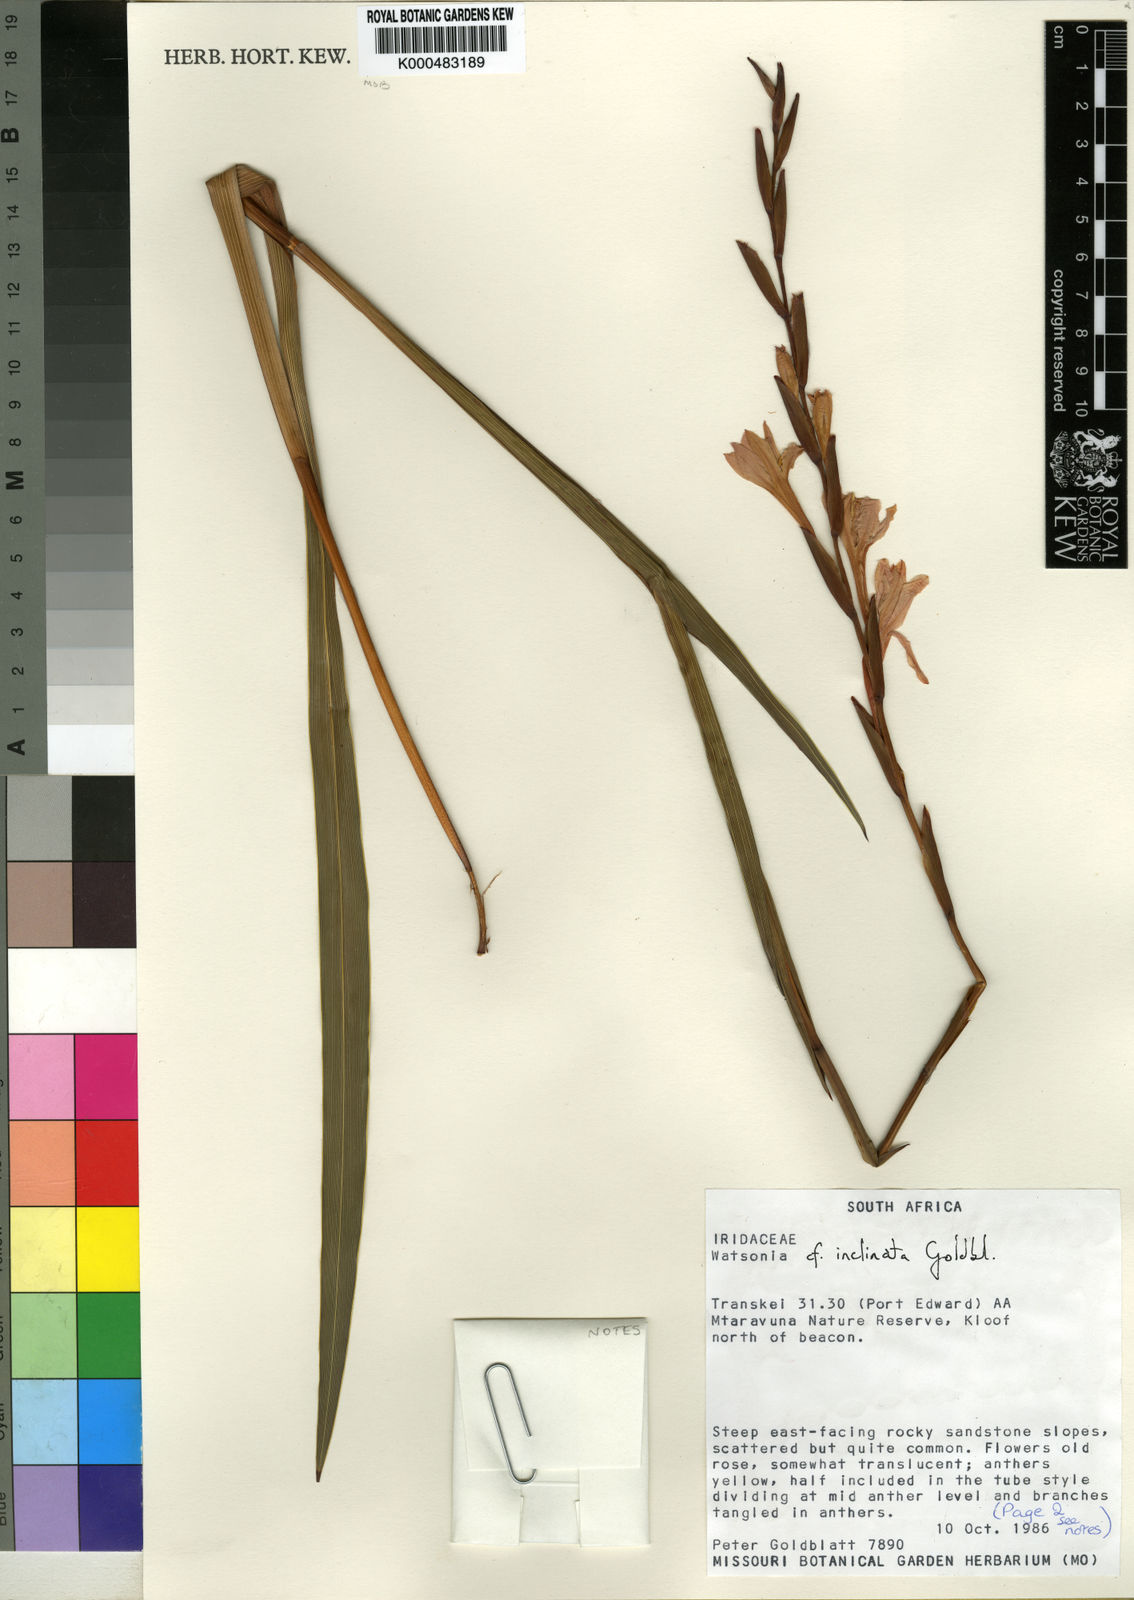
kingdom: Plantae
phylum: Tracheophyta
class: Liliopsida
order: Asparagales
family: Iridaceae
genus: Watsonia
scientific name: Watsonia inclinata
